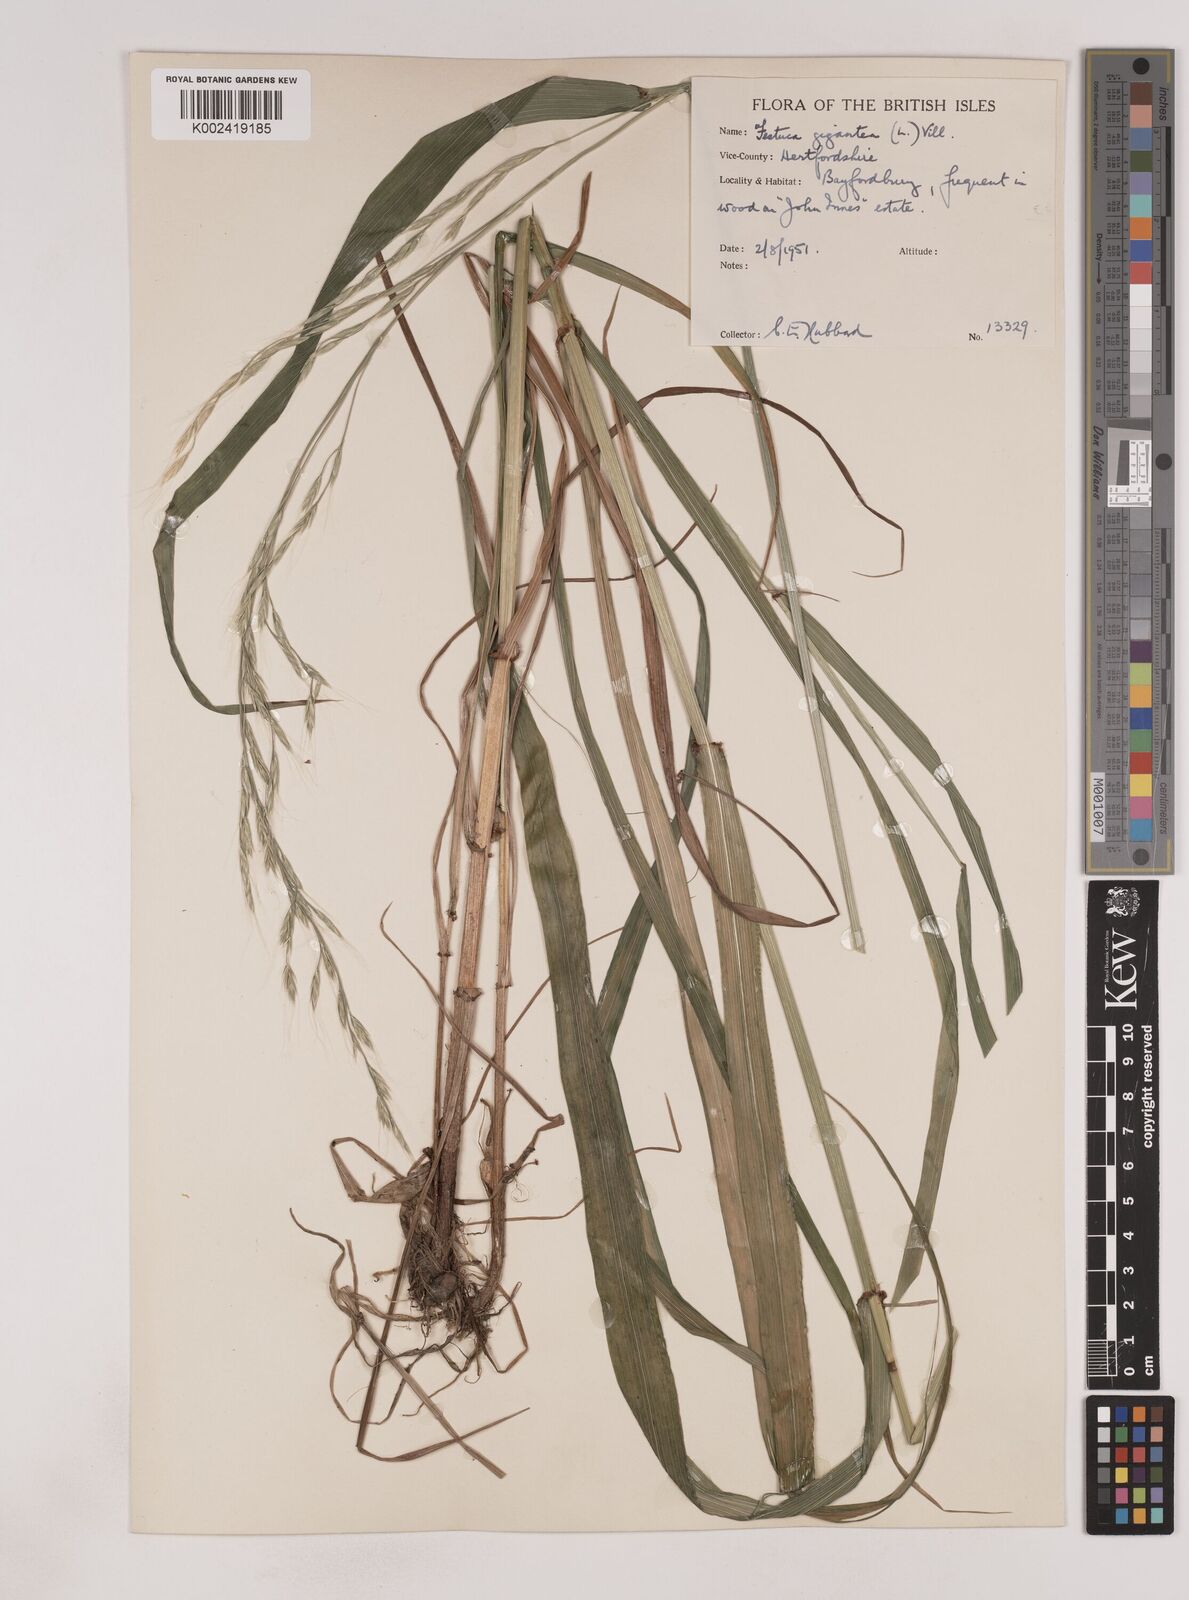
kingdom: Plantae
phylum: Tracheophyta
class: Liliopsida
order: Poales
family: Poaceae
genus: Lolium
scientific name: Lolium giganteum
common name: Giant fescue
